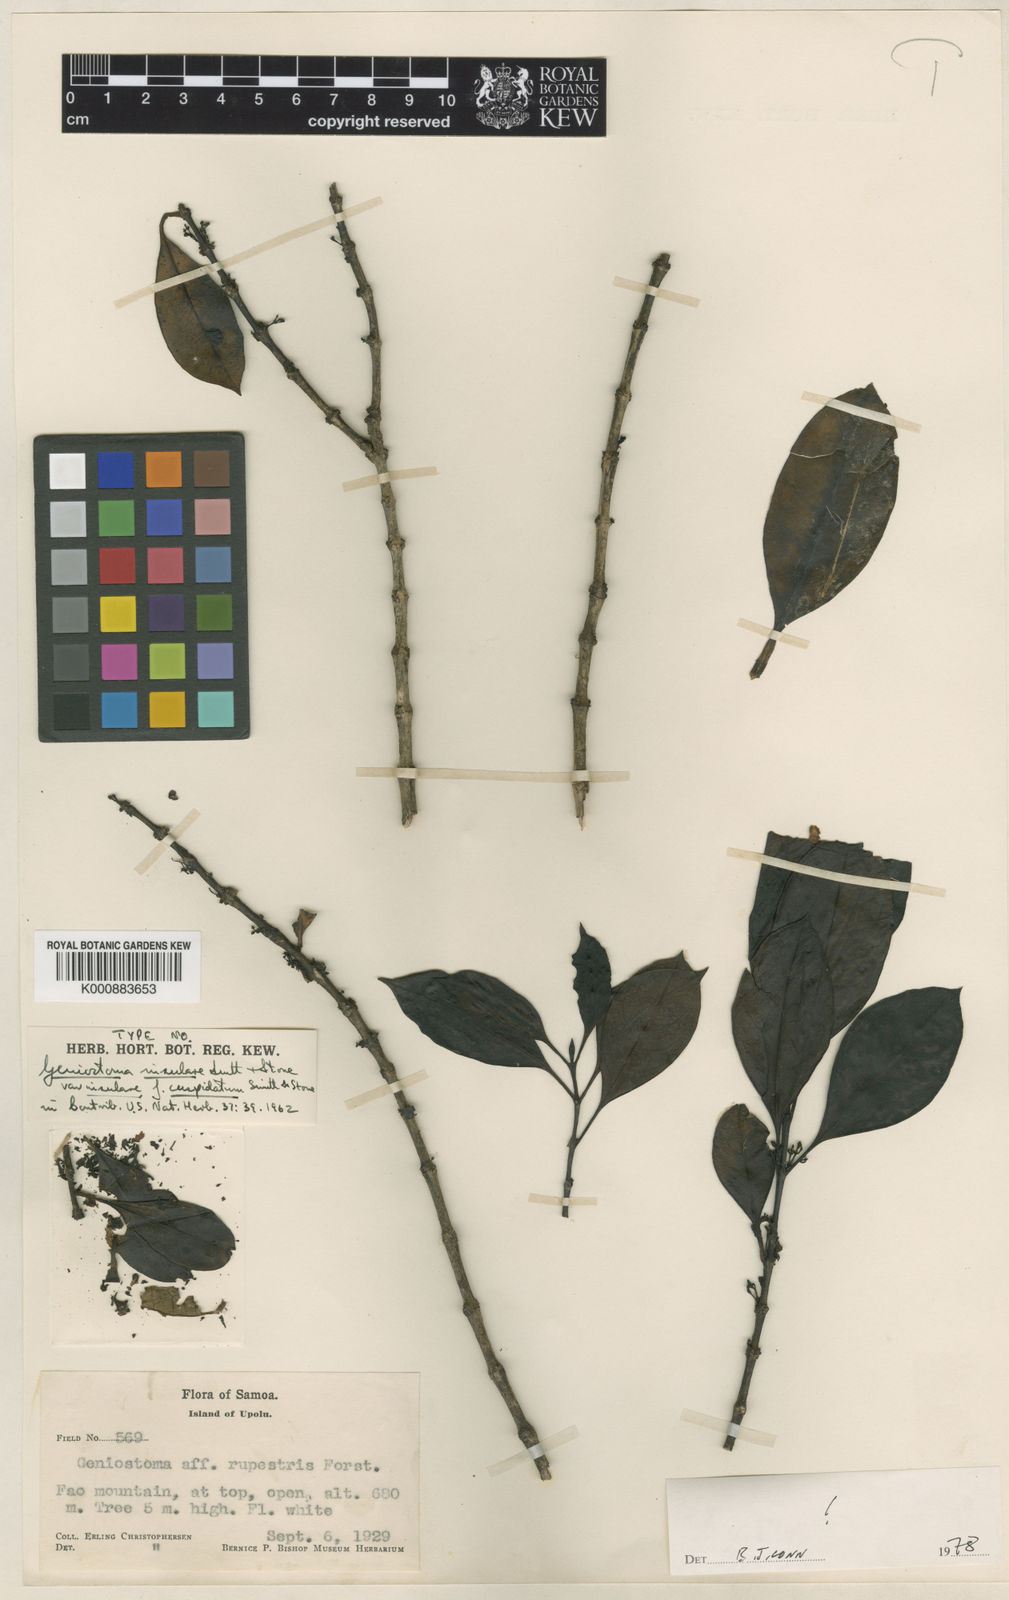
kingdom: Plantae
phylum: Tracheophyta
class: Magnoliopsida
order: Gentianales
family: Loganiaceae
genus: Geniostoma
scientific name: Geniostoma rupestre
